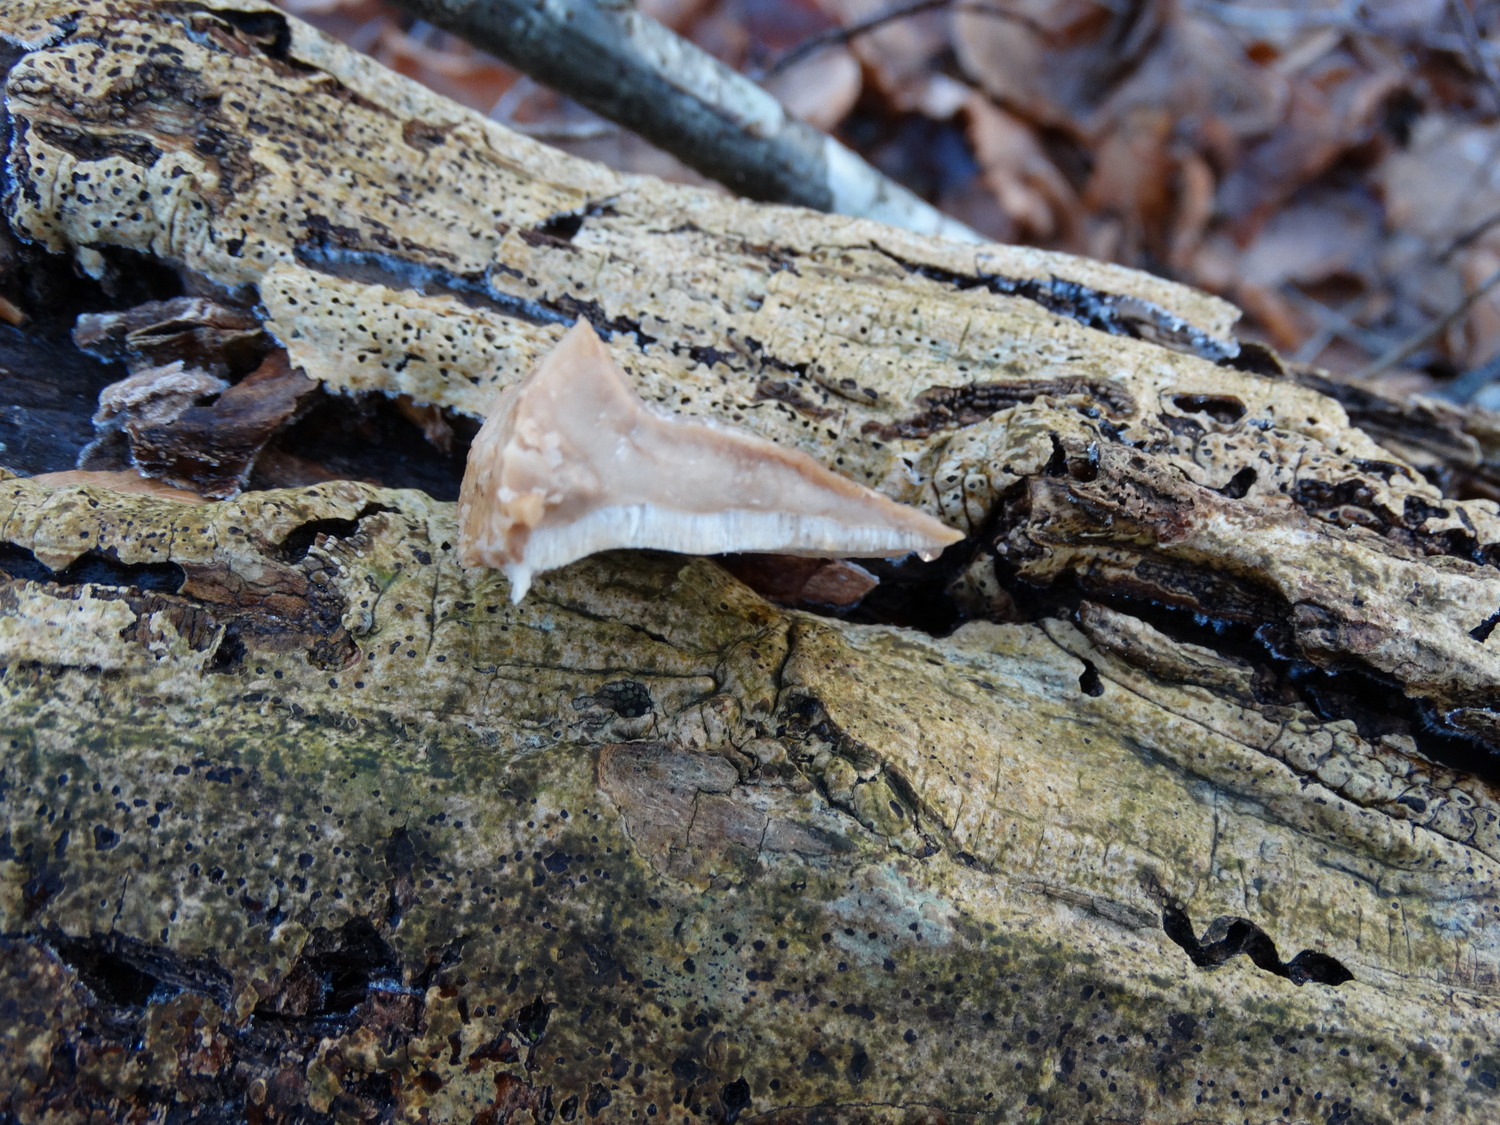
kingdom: Fungi
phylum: Basidiomycota
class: Agaricomycetes
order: Polyporales
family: Phanerochaetaceae
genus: Bjerkandera
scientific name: Bjerkandera fumosa
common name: grågul sodporesvamp
